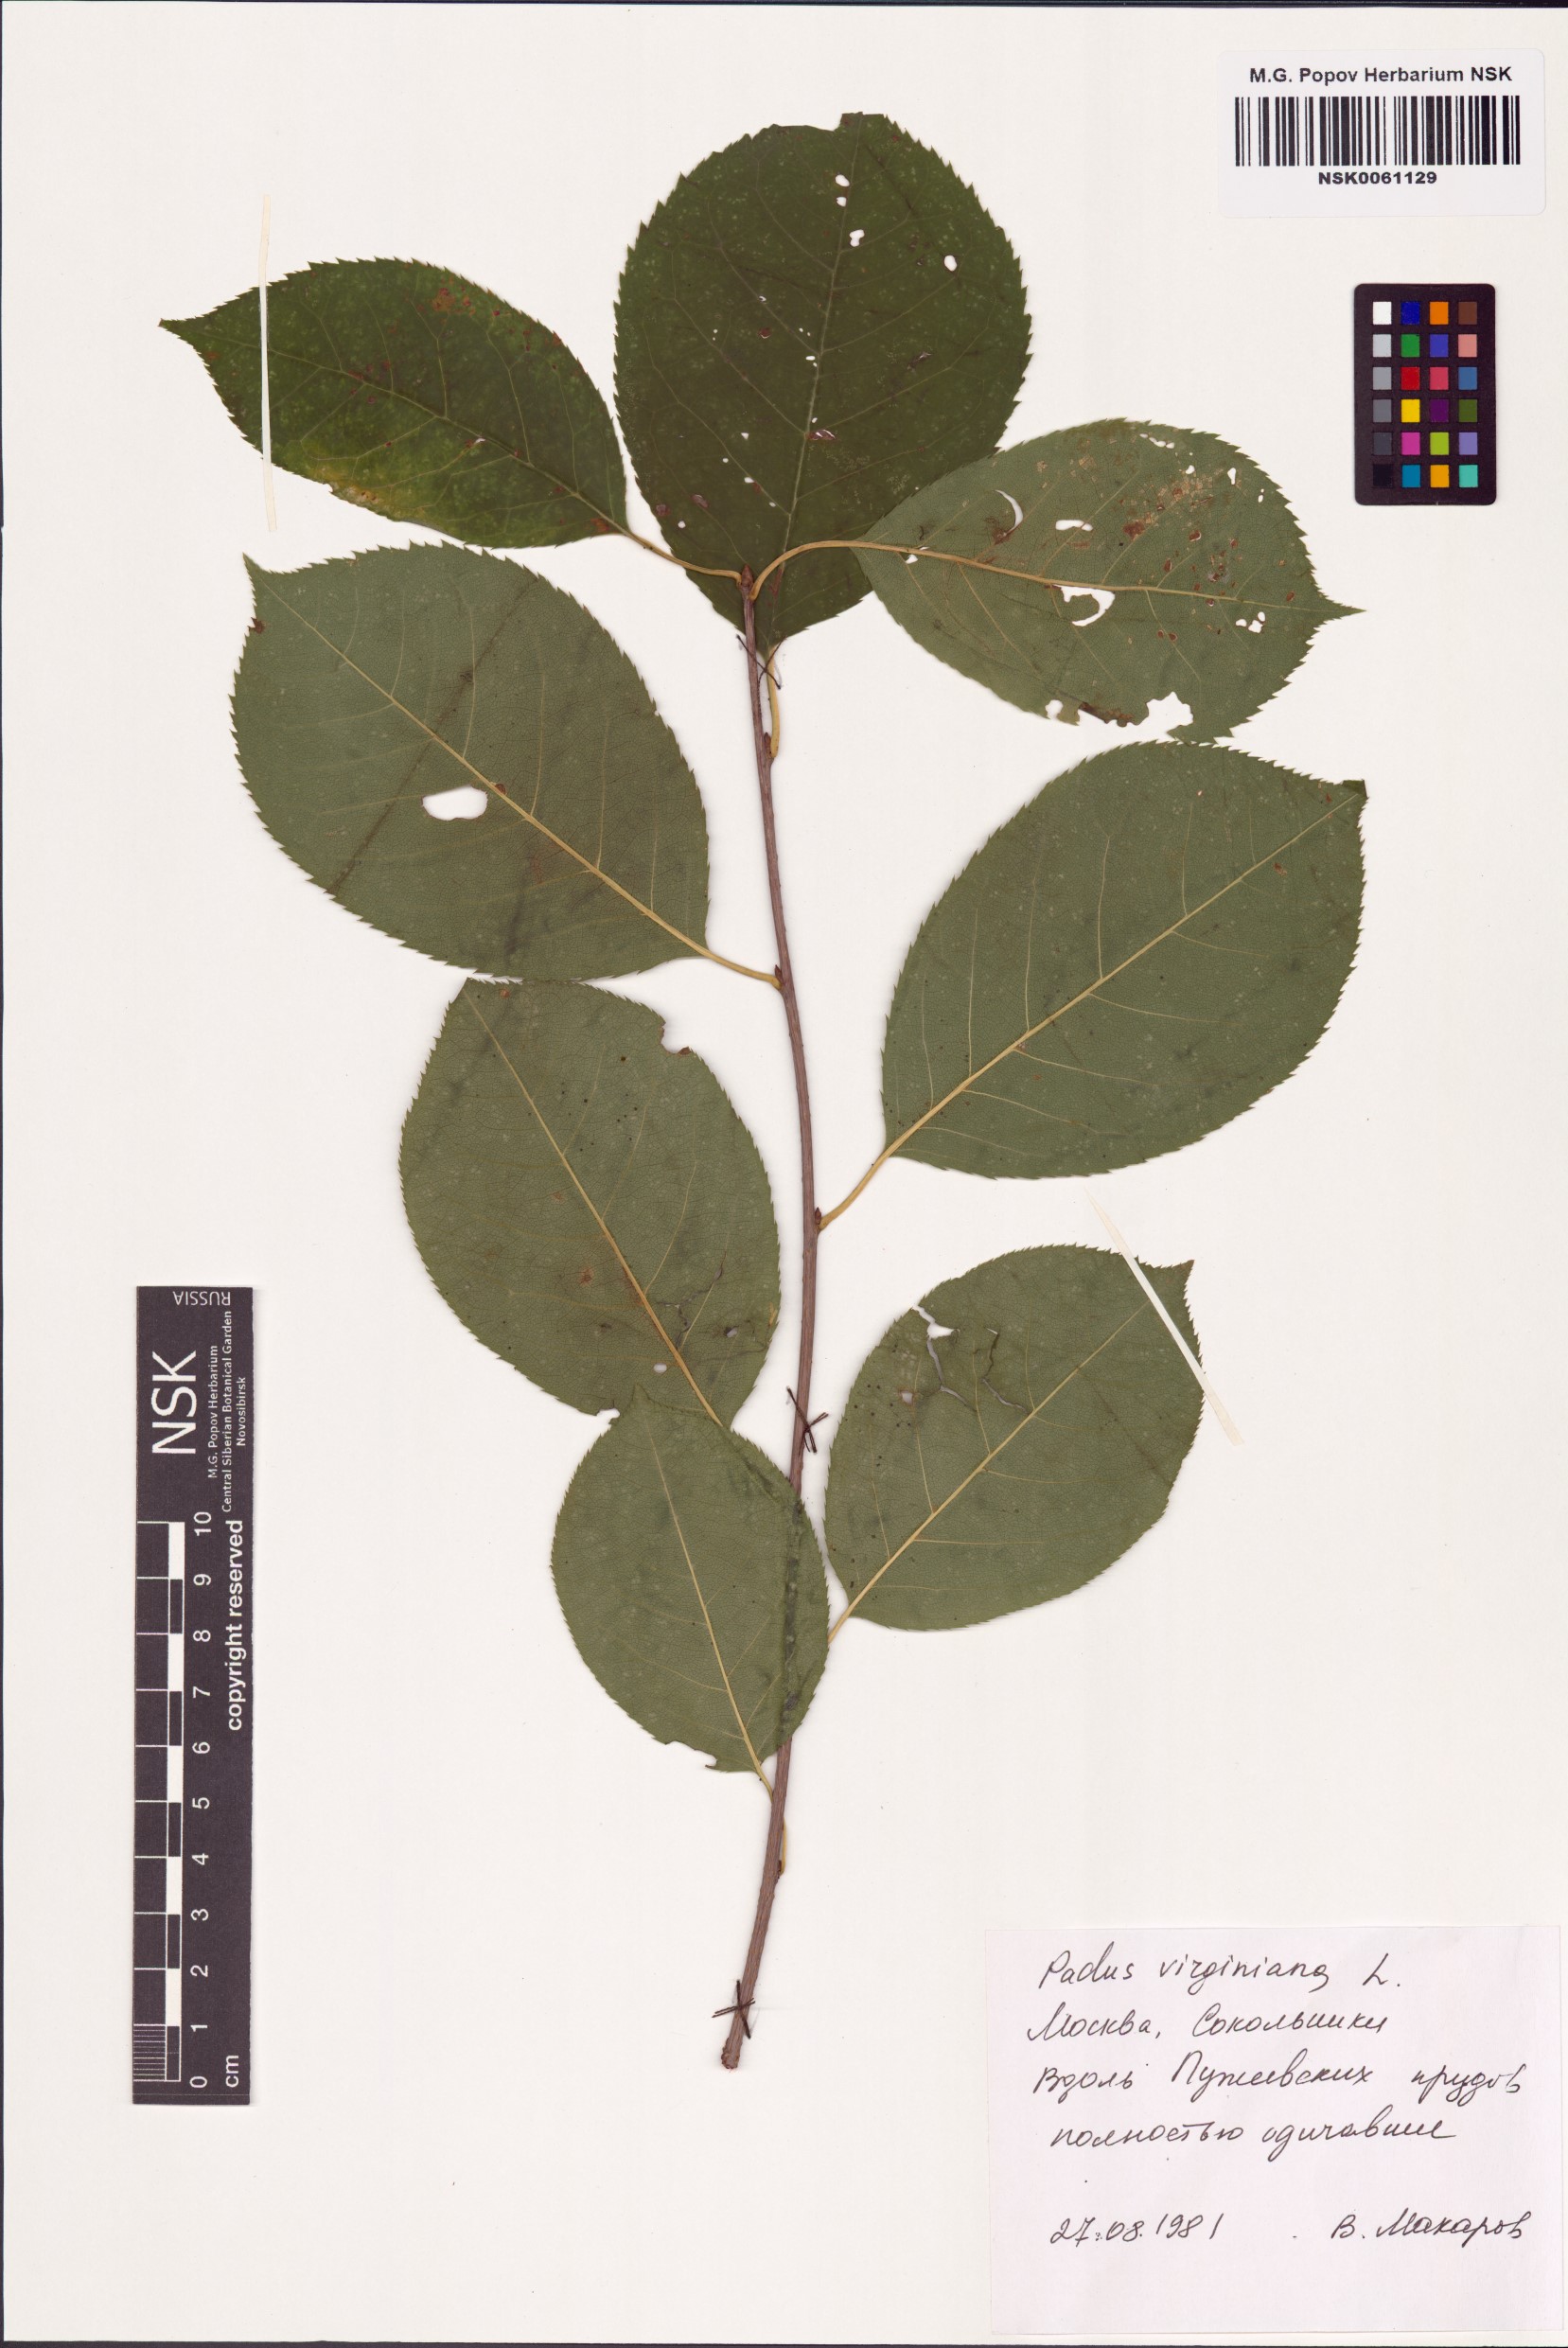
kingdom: Plantae
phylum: Tracheophyta
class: Magnoliopsida
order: Rosales
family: Rosaceae
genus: Prunus
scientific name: Prunus virginiana
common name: Chokecherry
